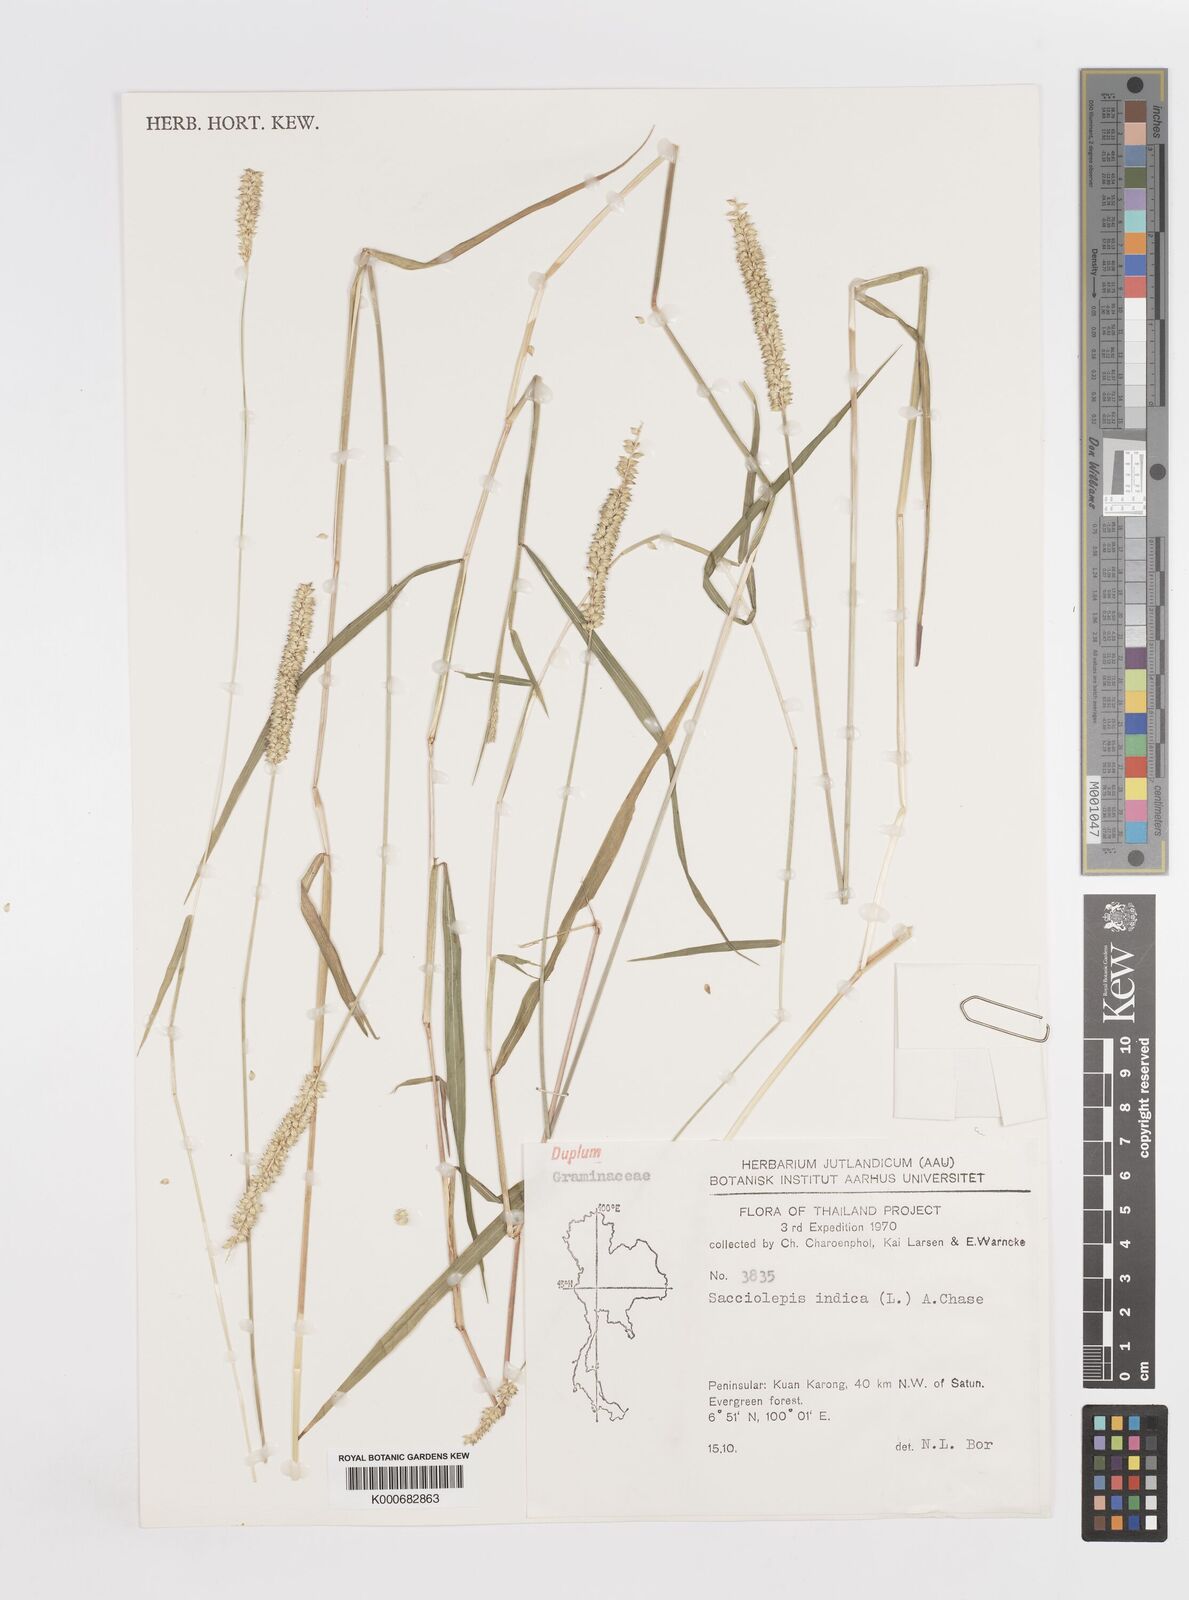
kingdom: Plantae
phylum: Tracheophyta
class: Liliopsida
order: Poales
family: Poaceae
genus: Sacciolepis
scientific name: Sacciolepis indica
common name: Glenwoodgrass
